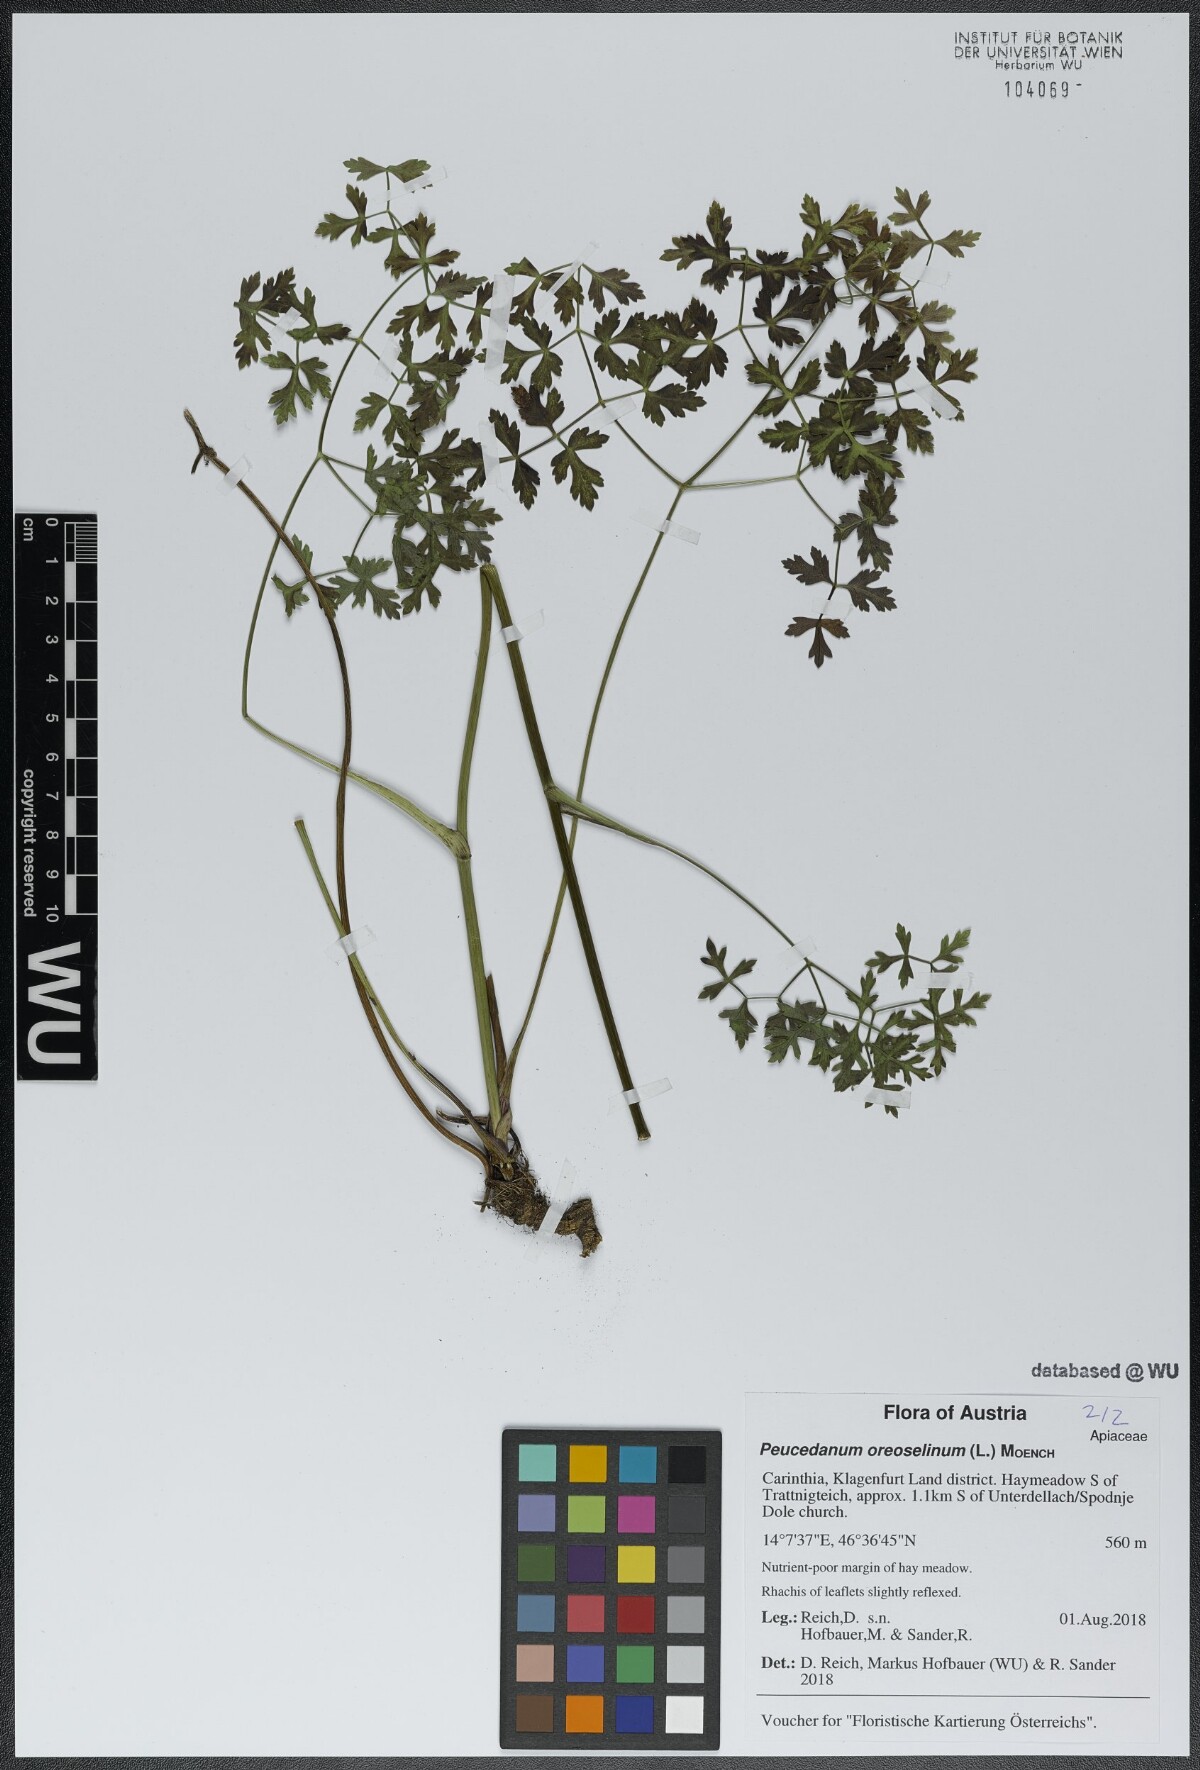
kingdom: Plantae
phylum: Tracheophyta
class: Magnoliopsida
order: Apiales
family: Apiaceae
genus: Oreoselinum
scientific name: Oreoselinum nigrum
